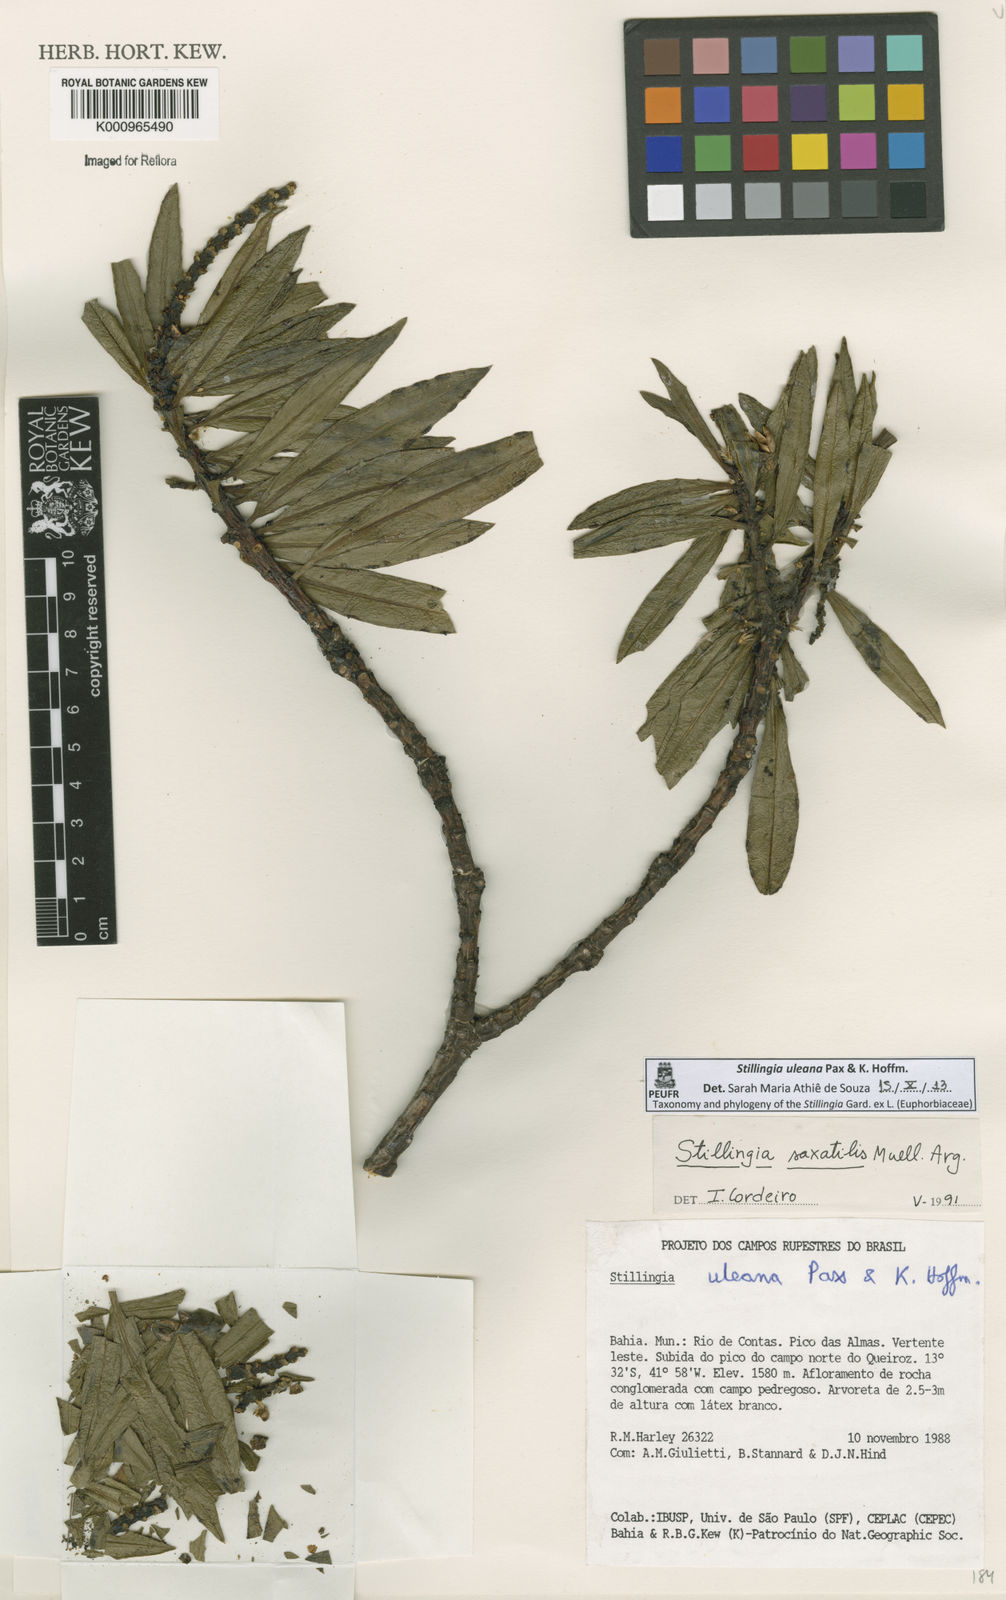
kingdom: Plantae
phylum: Tracheophyta
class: Magnoliopsida
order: Malpighiales
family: Euphorbiaceae
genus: Stillingia
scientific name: Stillingia uleana
